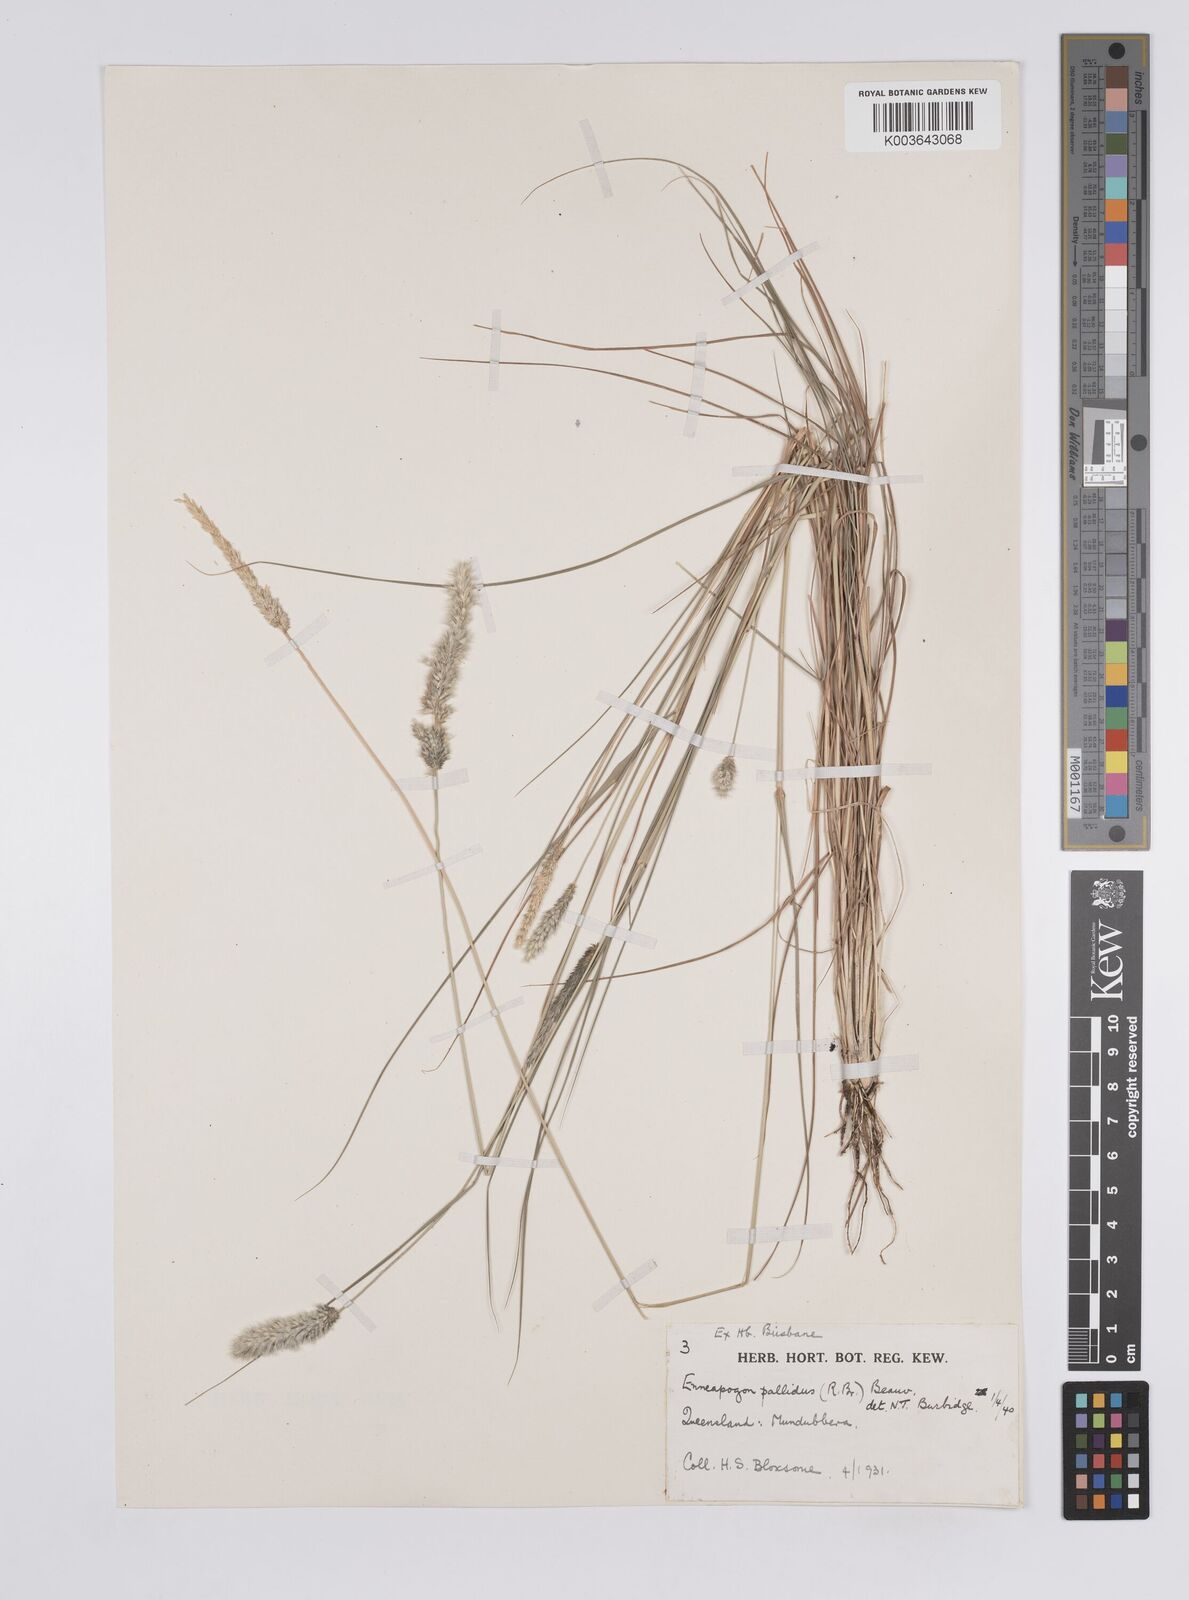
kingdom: Plantae
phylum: Tracheophyta
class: Liliopsida
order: Poales
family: Poaceae
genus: Enneapogon
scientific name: Enneapogon pallidus
